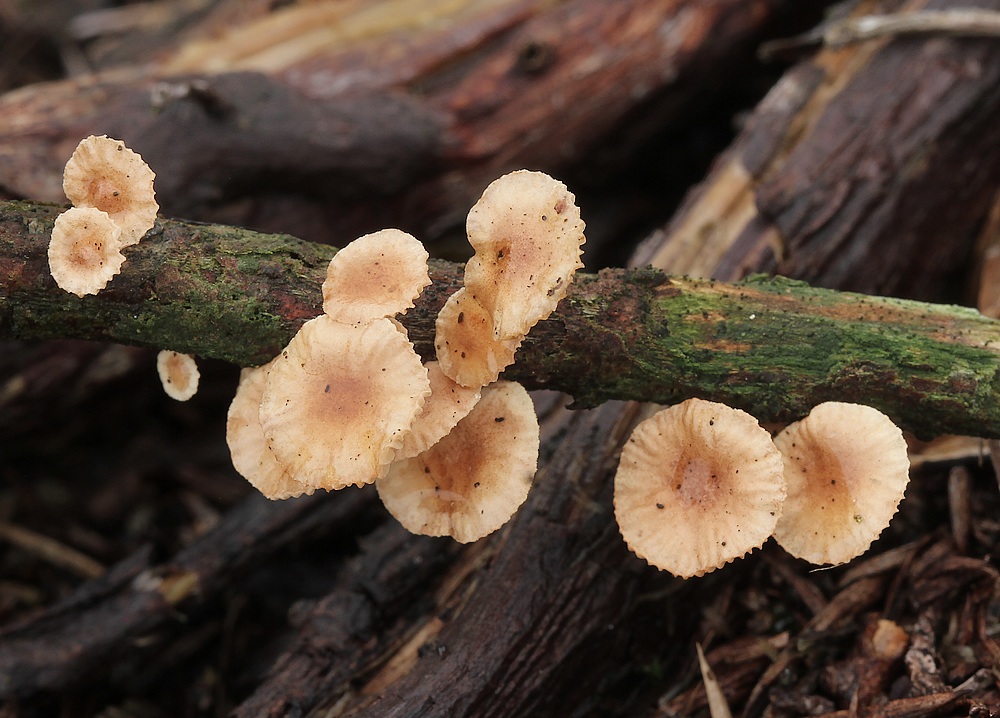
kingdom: Fungi
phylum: Basidiomycota
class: Agaricomycetes
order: Agaricales
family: Omphalotaceae
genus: Collybiopsis
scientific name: Collybiopsis ramealis
